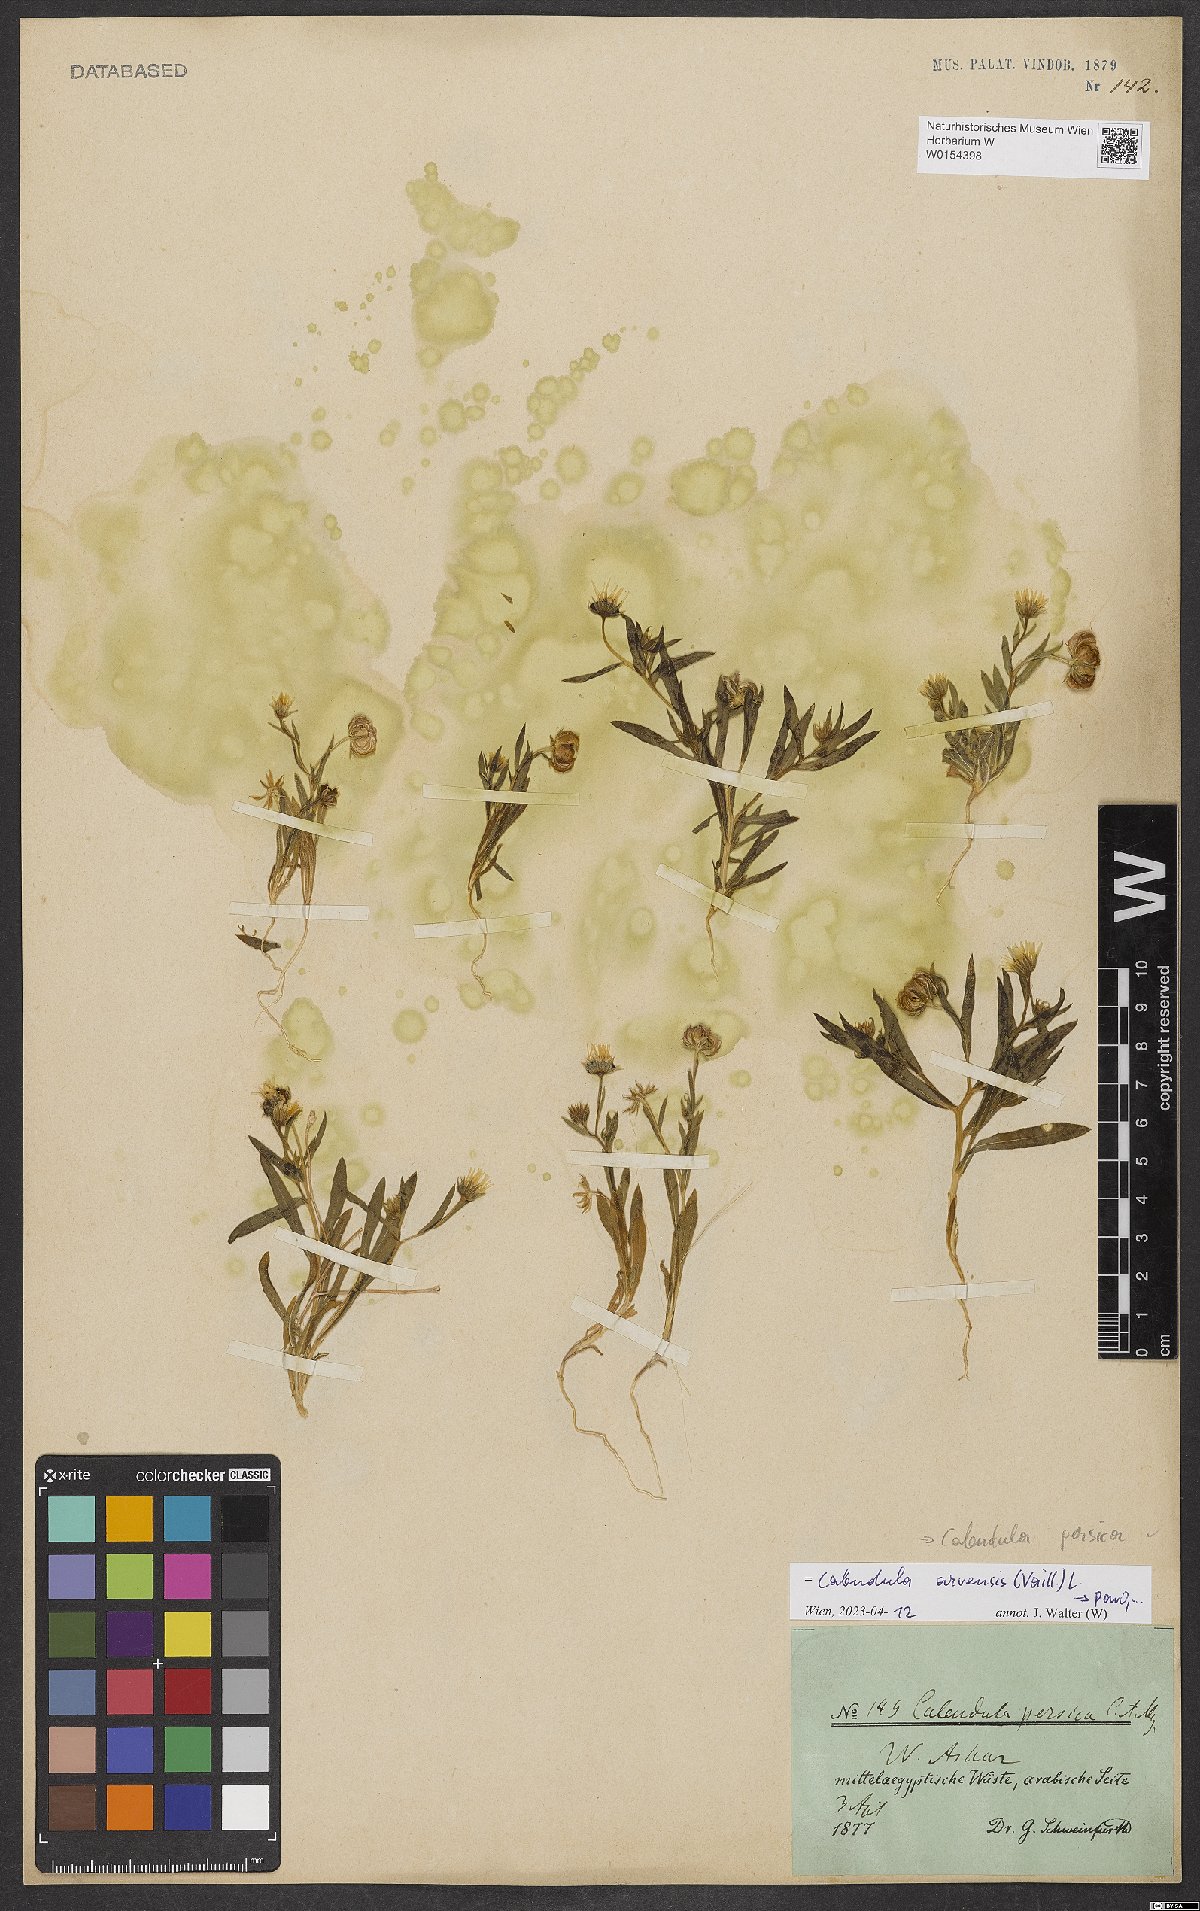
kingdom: Plantae
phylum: Tracheophyta
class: Magnoliopsida
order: Asterales
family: Asteraceae
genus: Calendula
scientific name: Calendula arvensis
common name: Field marigold
